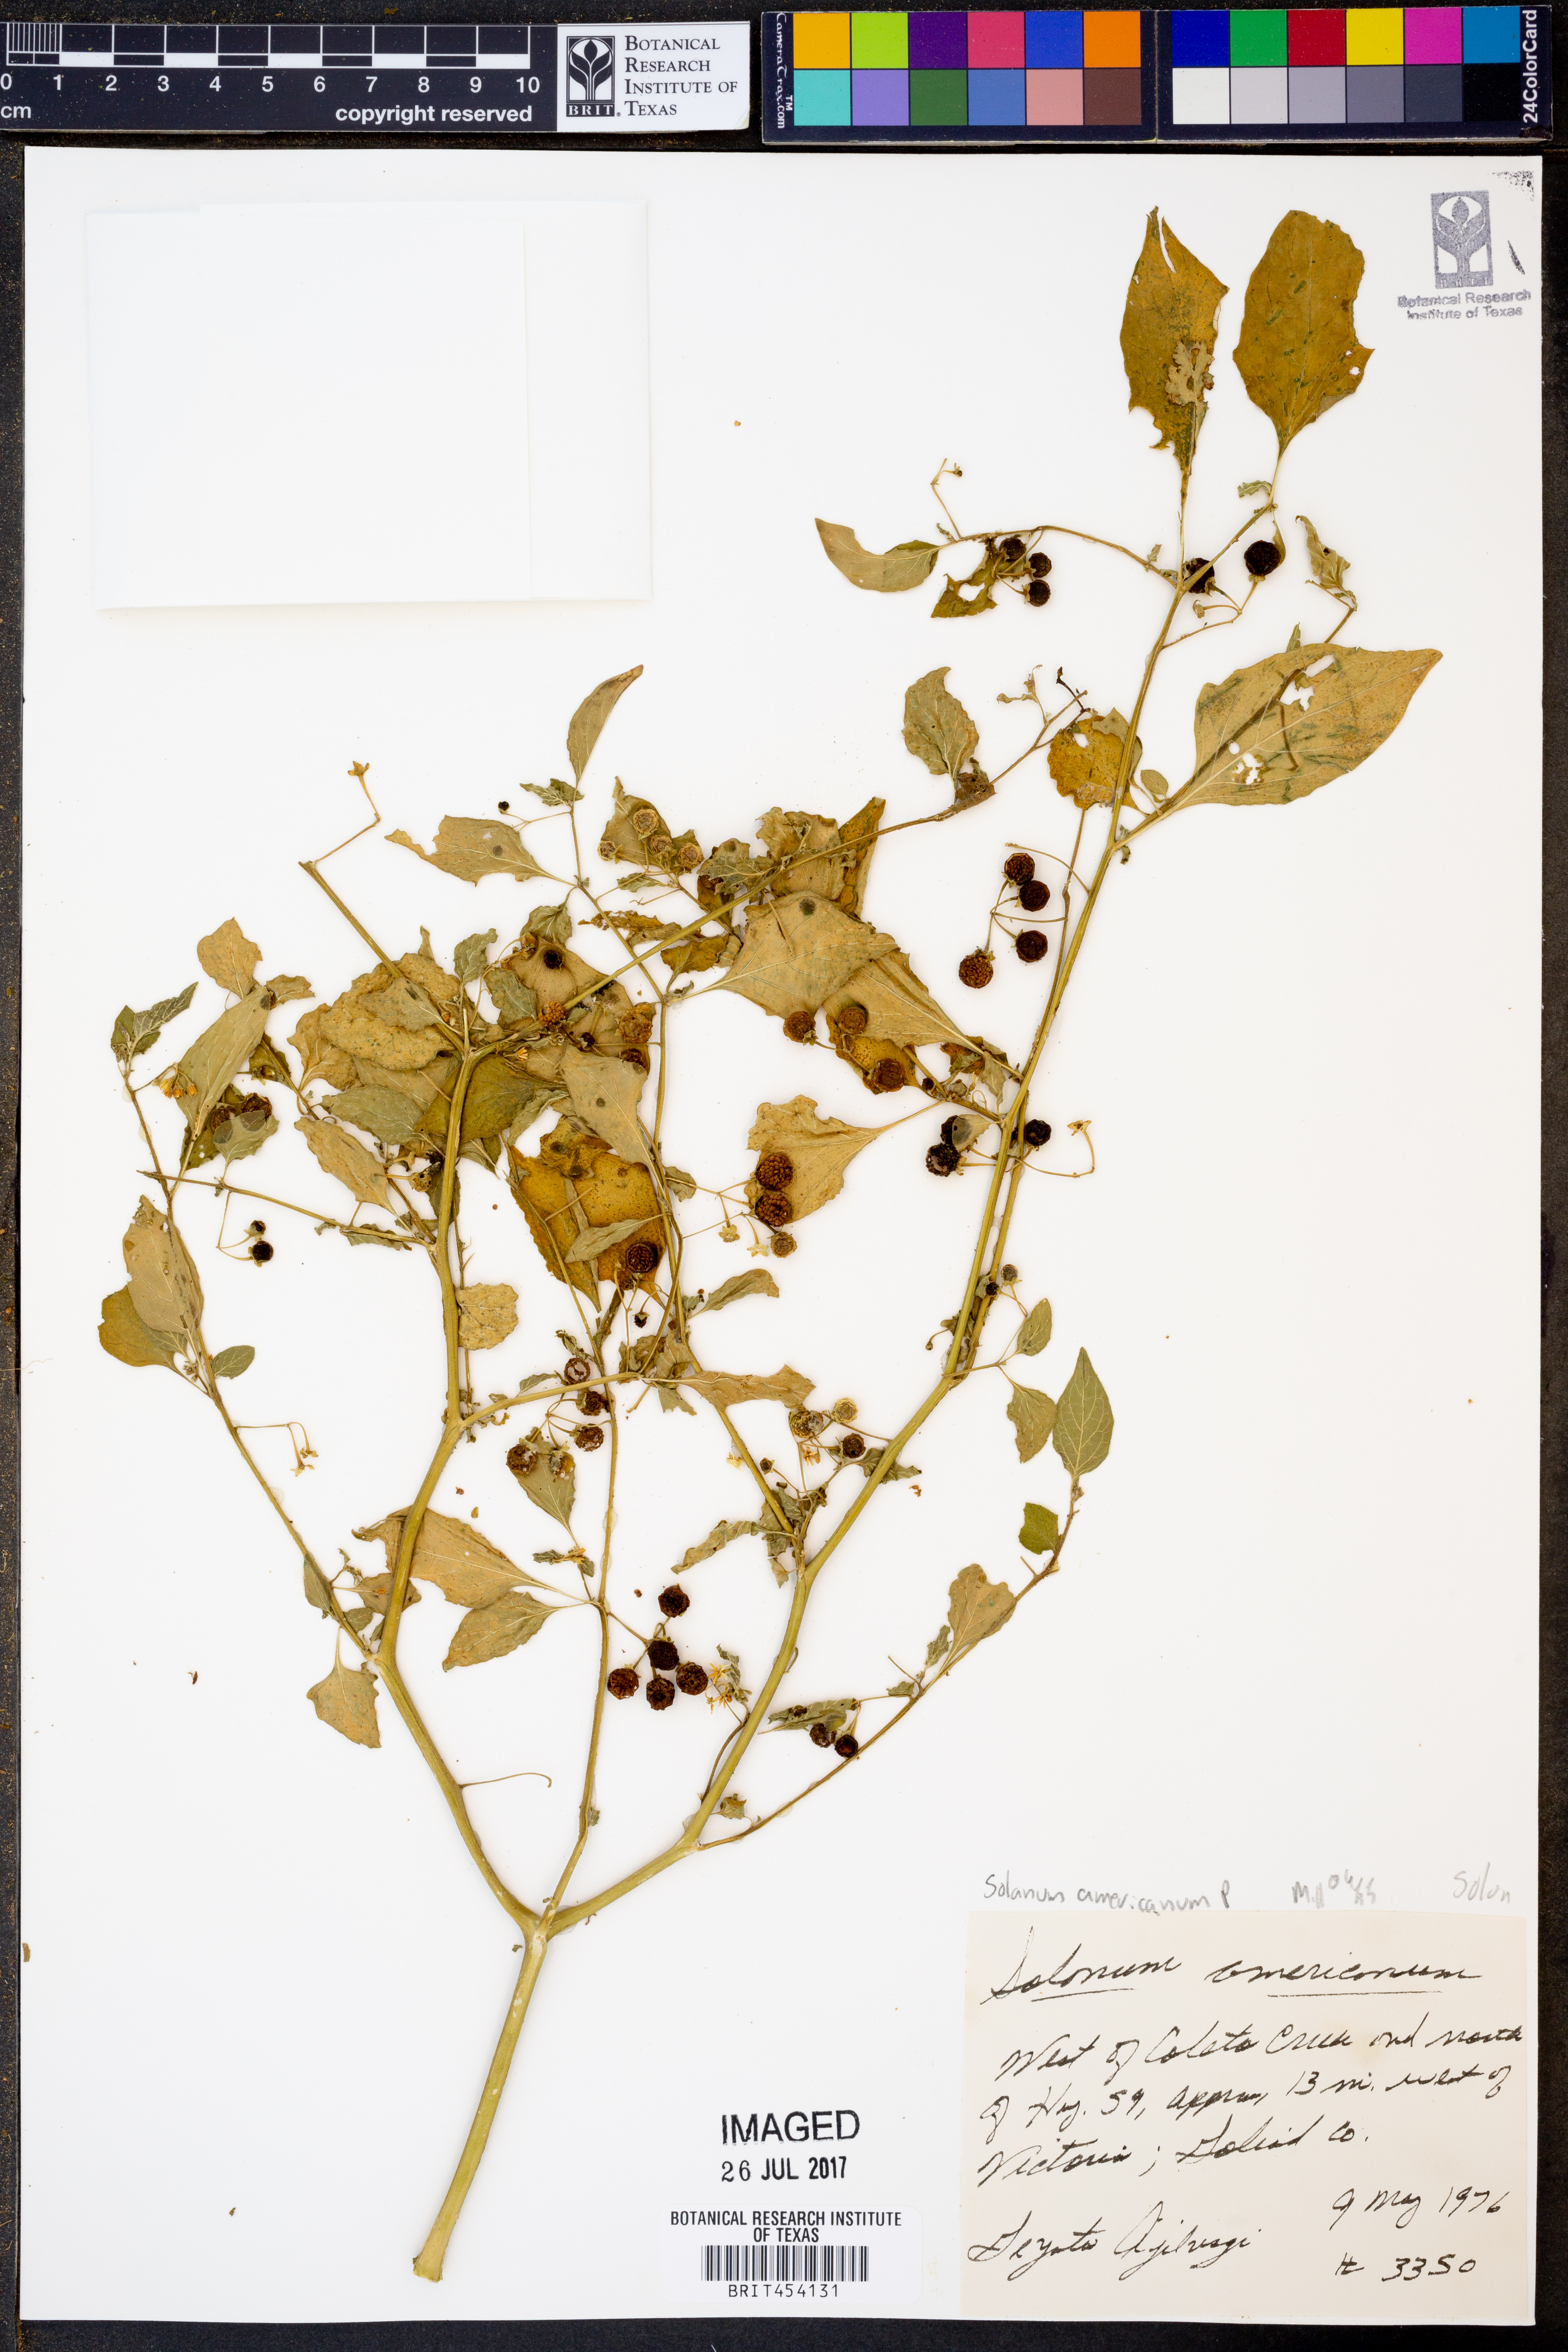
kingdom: Plantae
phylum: Tracheophyta
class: Magnoliopsida
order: Solanales
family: Solanaceae
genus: Solanum
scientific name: Solanum americanum
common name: American black nightshade
